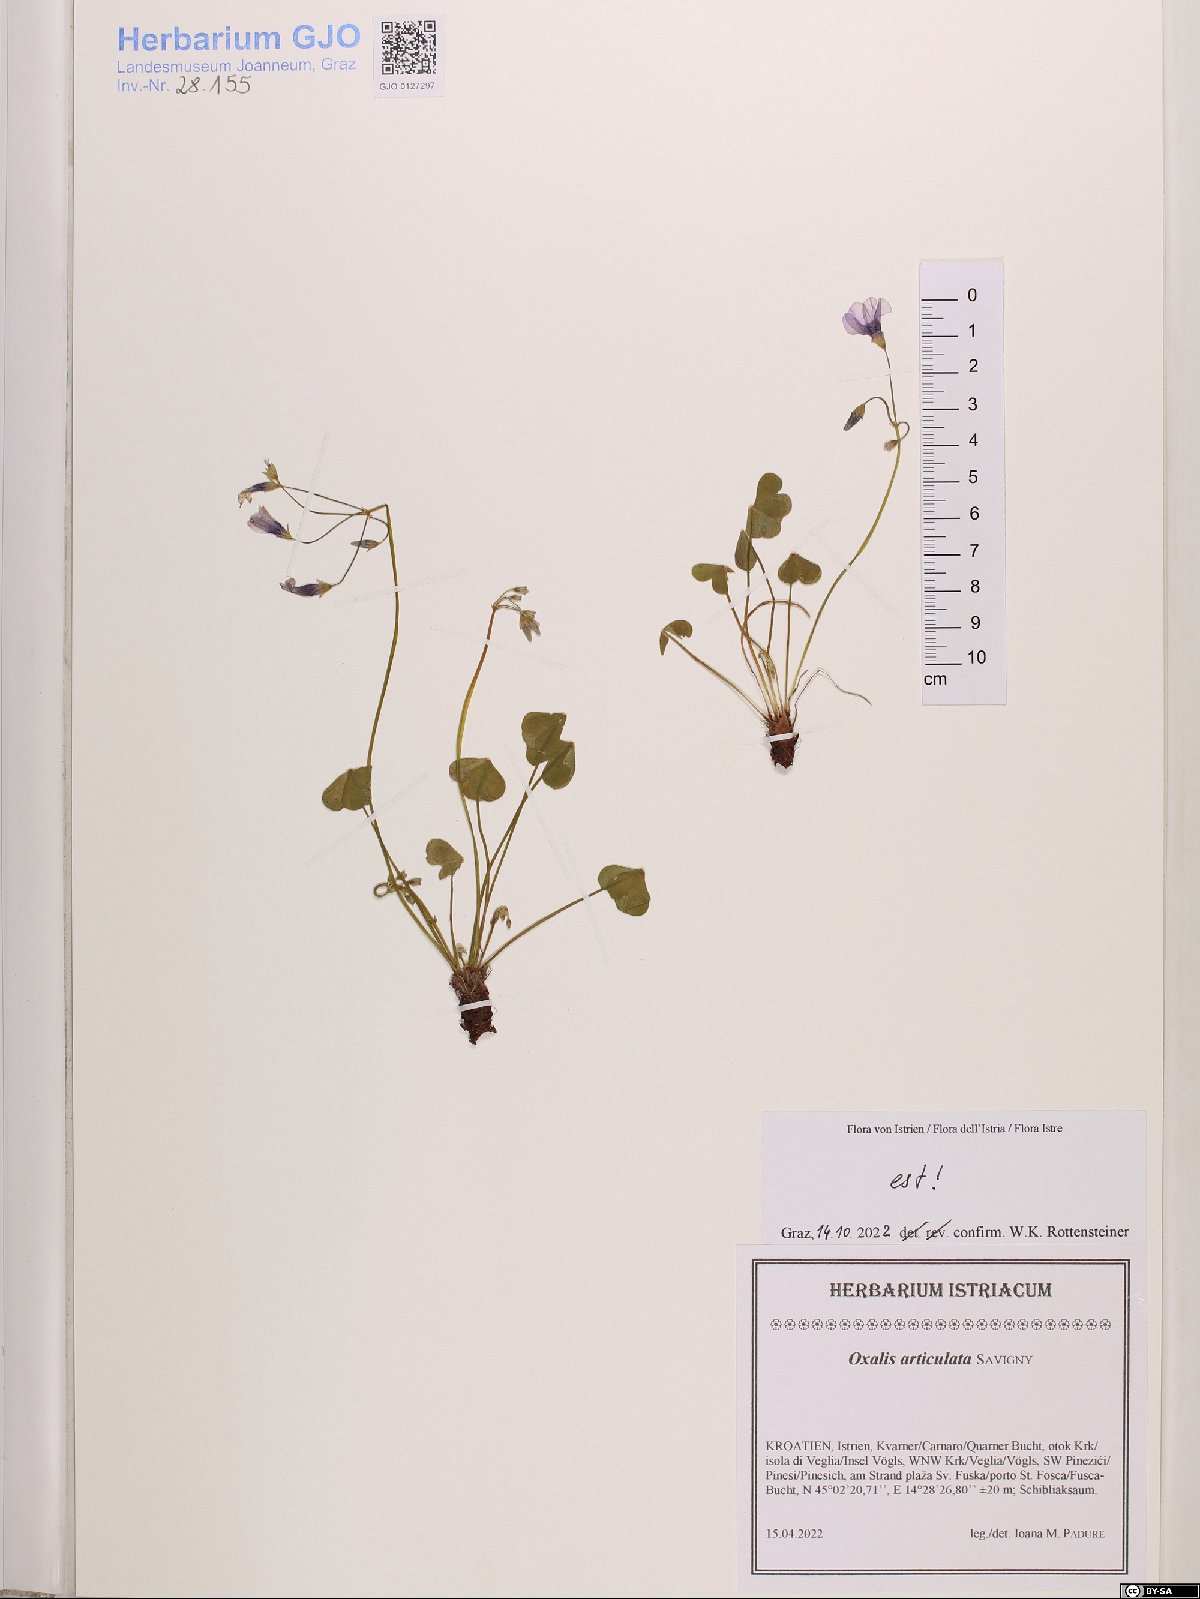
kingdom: Plantae
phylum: Tracheophyta
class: Magnoliopsida
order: Oxalidales
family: Oxalidaceae
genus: Oxalis
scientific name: Oxalis articulata
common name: Pink-sorrel
